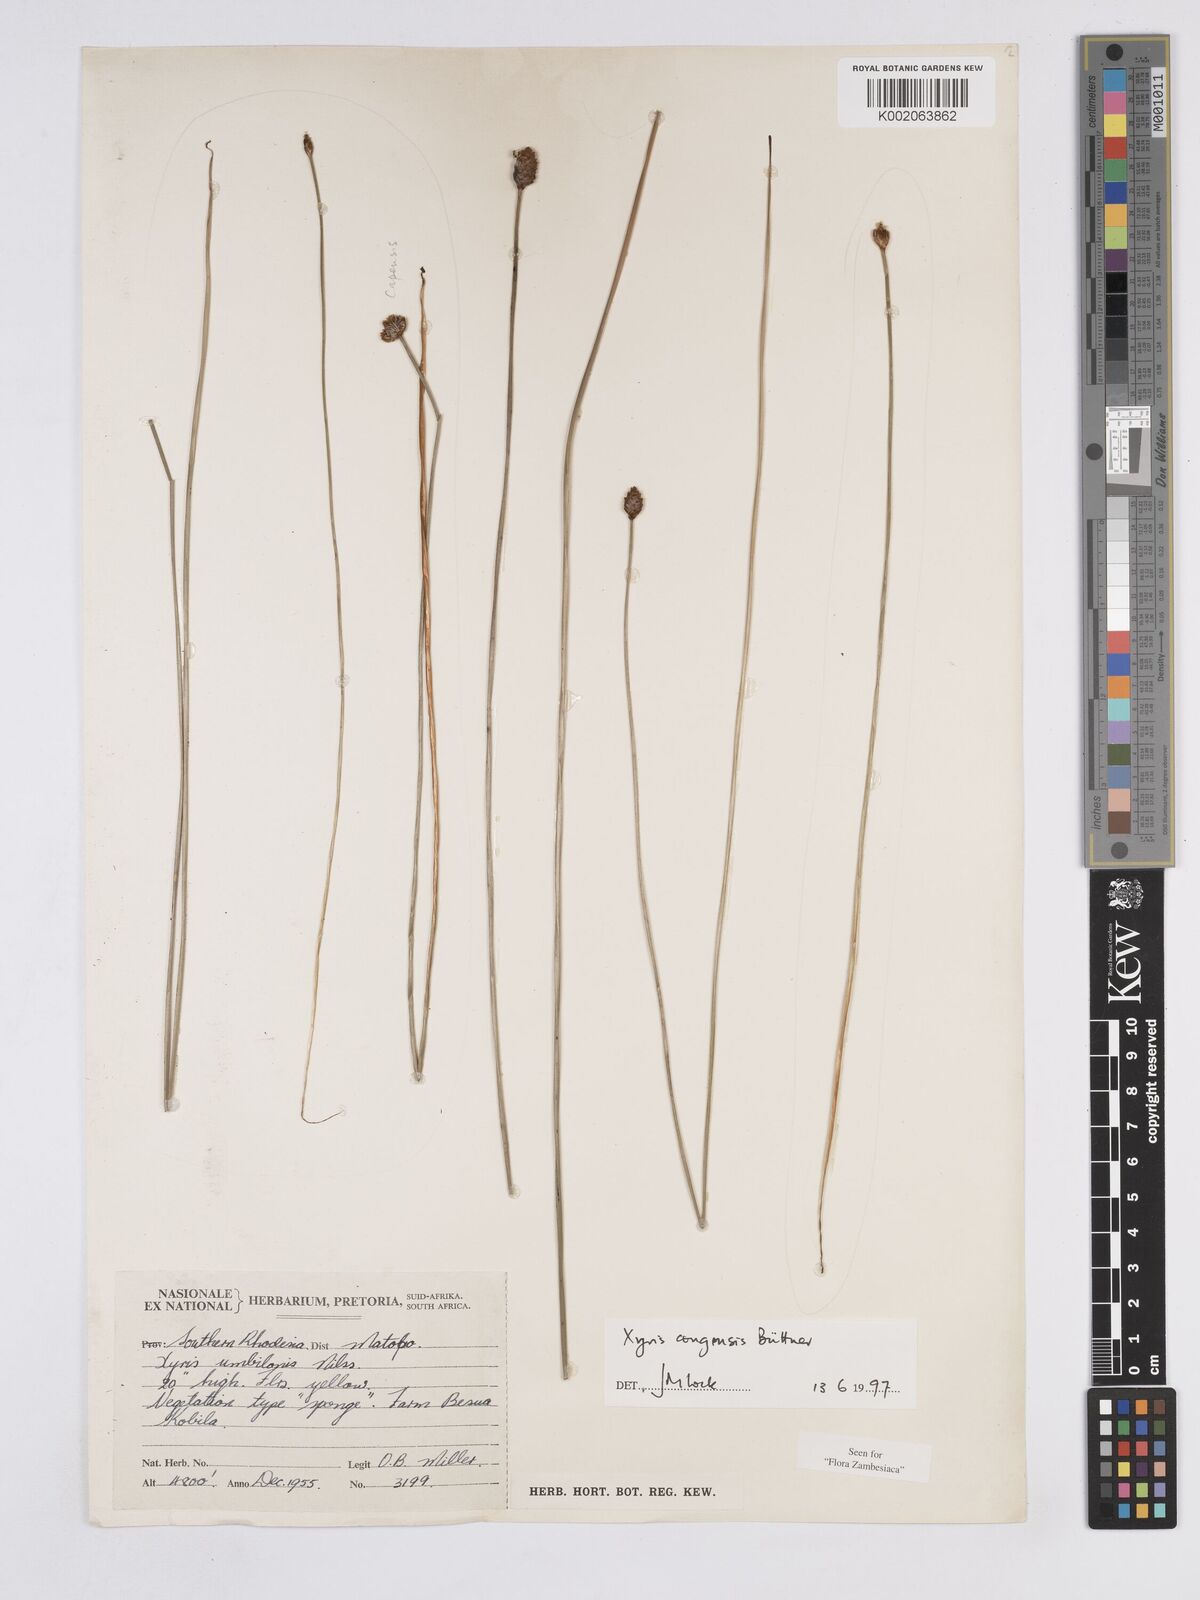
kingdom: Plantae
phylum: Tracheophyta
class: Liliopsida
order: Poales
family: Xyridaceae
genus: Xyris
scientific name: Xyris congensis
